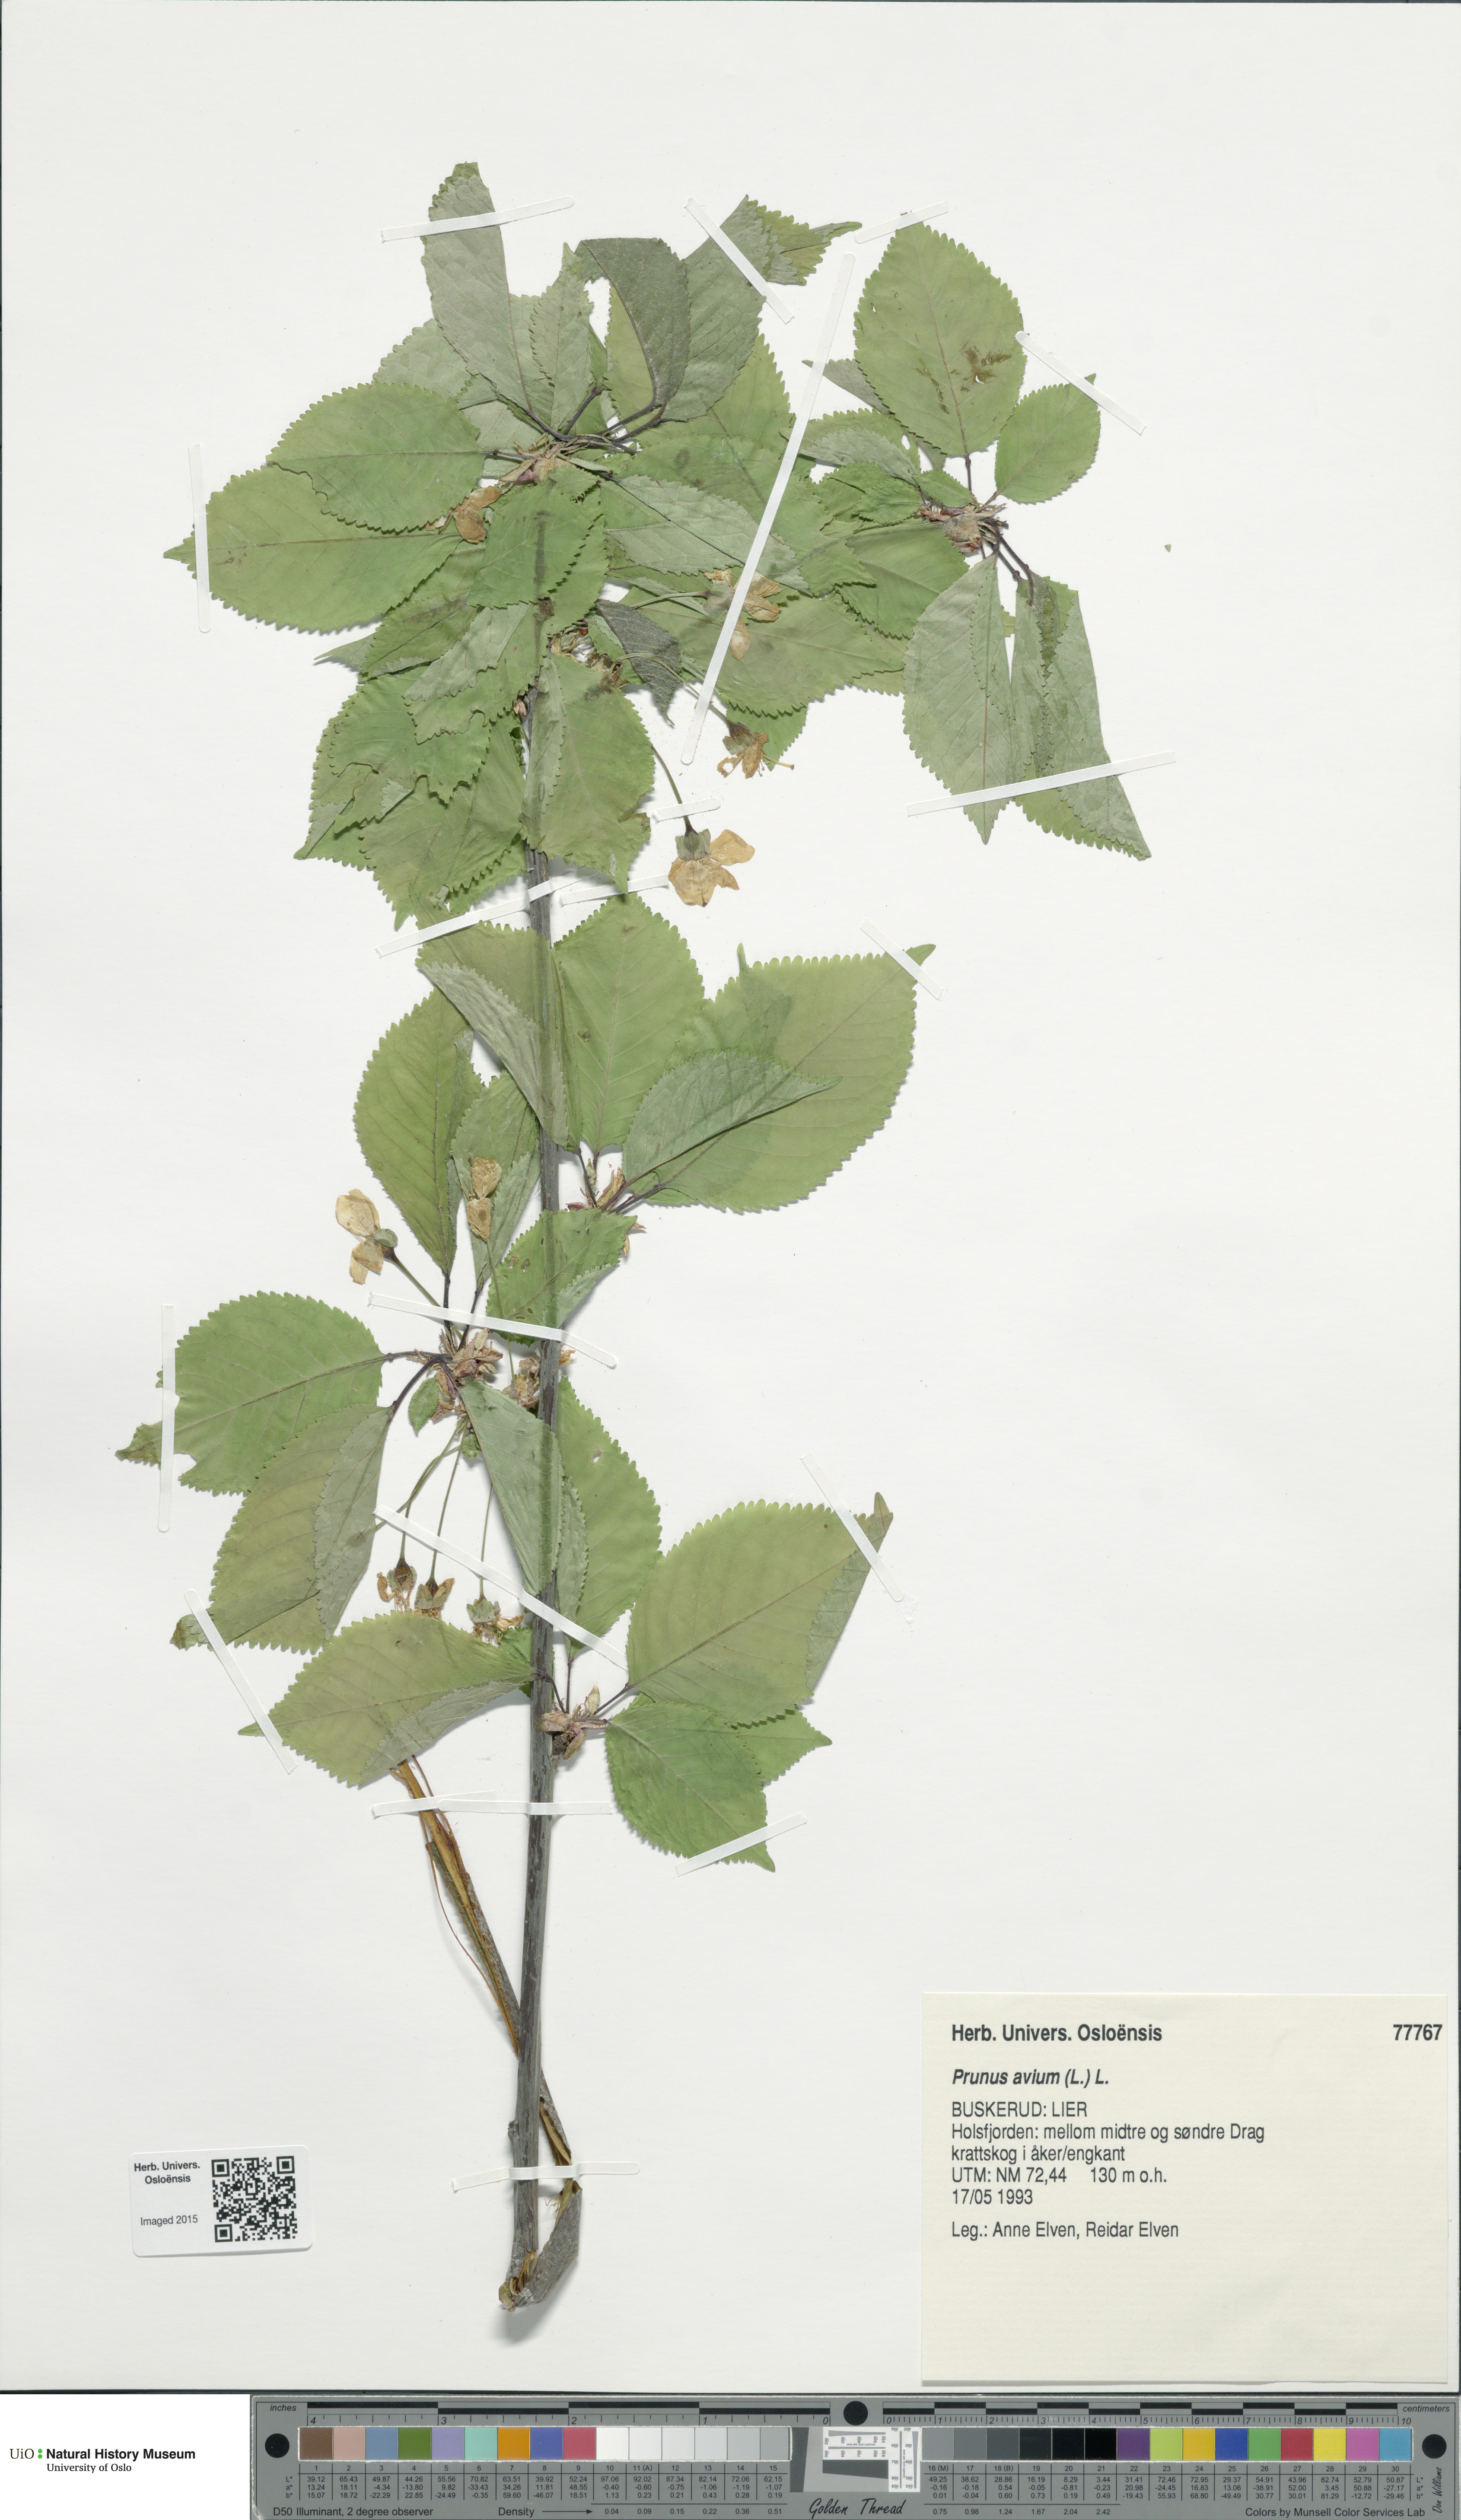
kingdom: Plantae
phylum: Tracheophyta
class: Magnoliopsida
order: Rosales
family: Rosaceae
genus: Prunus
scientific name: Prunus avium
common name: Sweet cherry
